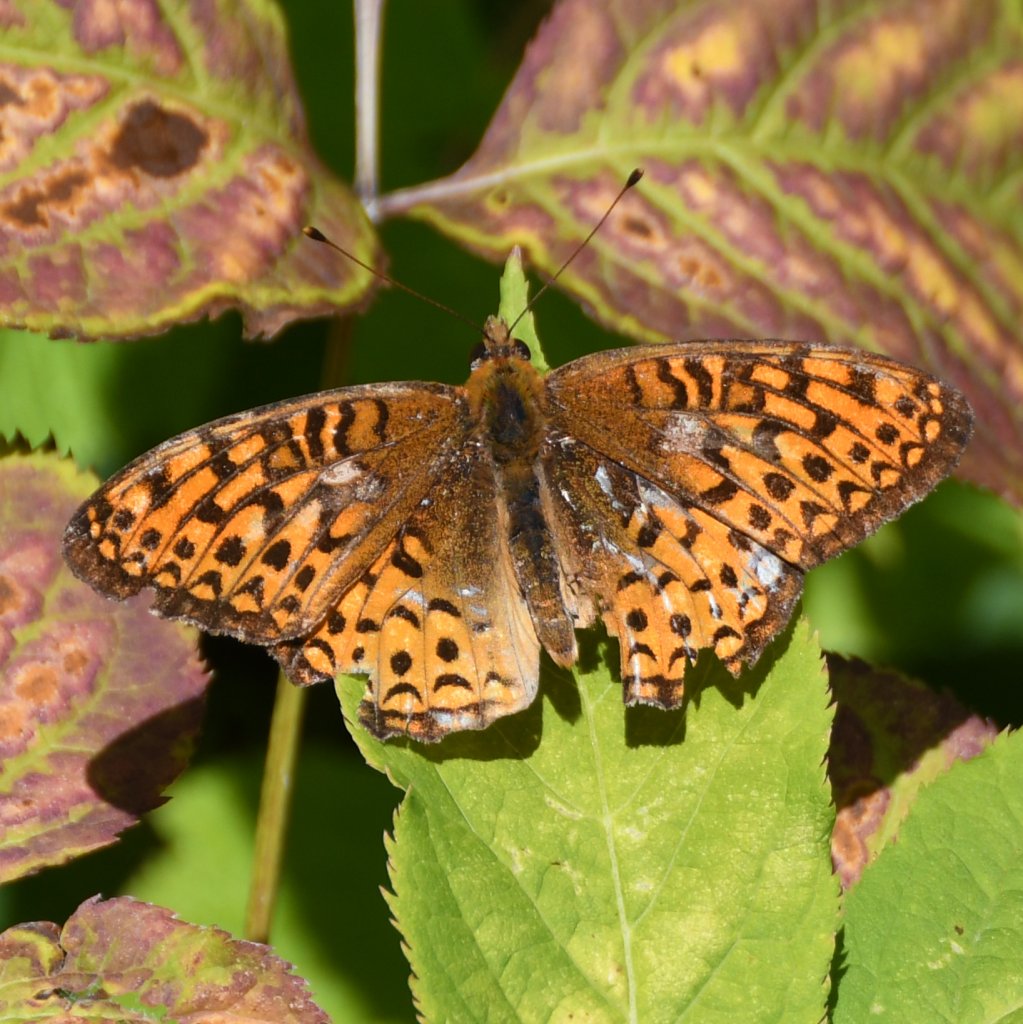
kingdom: Animalia
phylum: Arthropoda
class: Insecta
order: Lepidoptera
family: Nymphalidae
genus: Speyeria
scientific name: Speyeria
